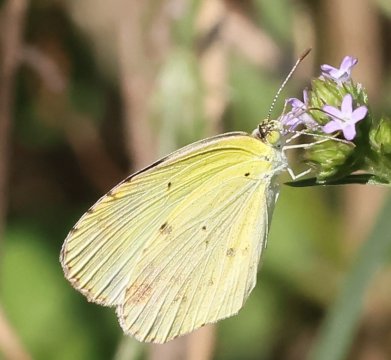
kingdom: Animalia
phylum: Arthropoda
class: Insecta
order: Lepidoptera
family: Pieridae
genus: Pyrisitia
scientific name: Pyrisitia lisa
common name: Little Yellow
